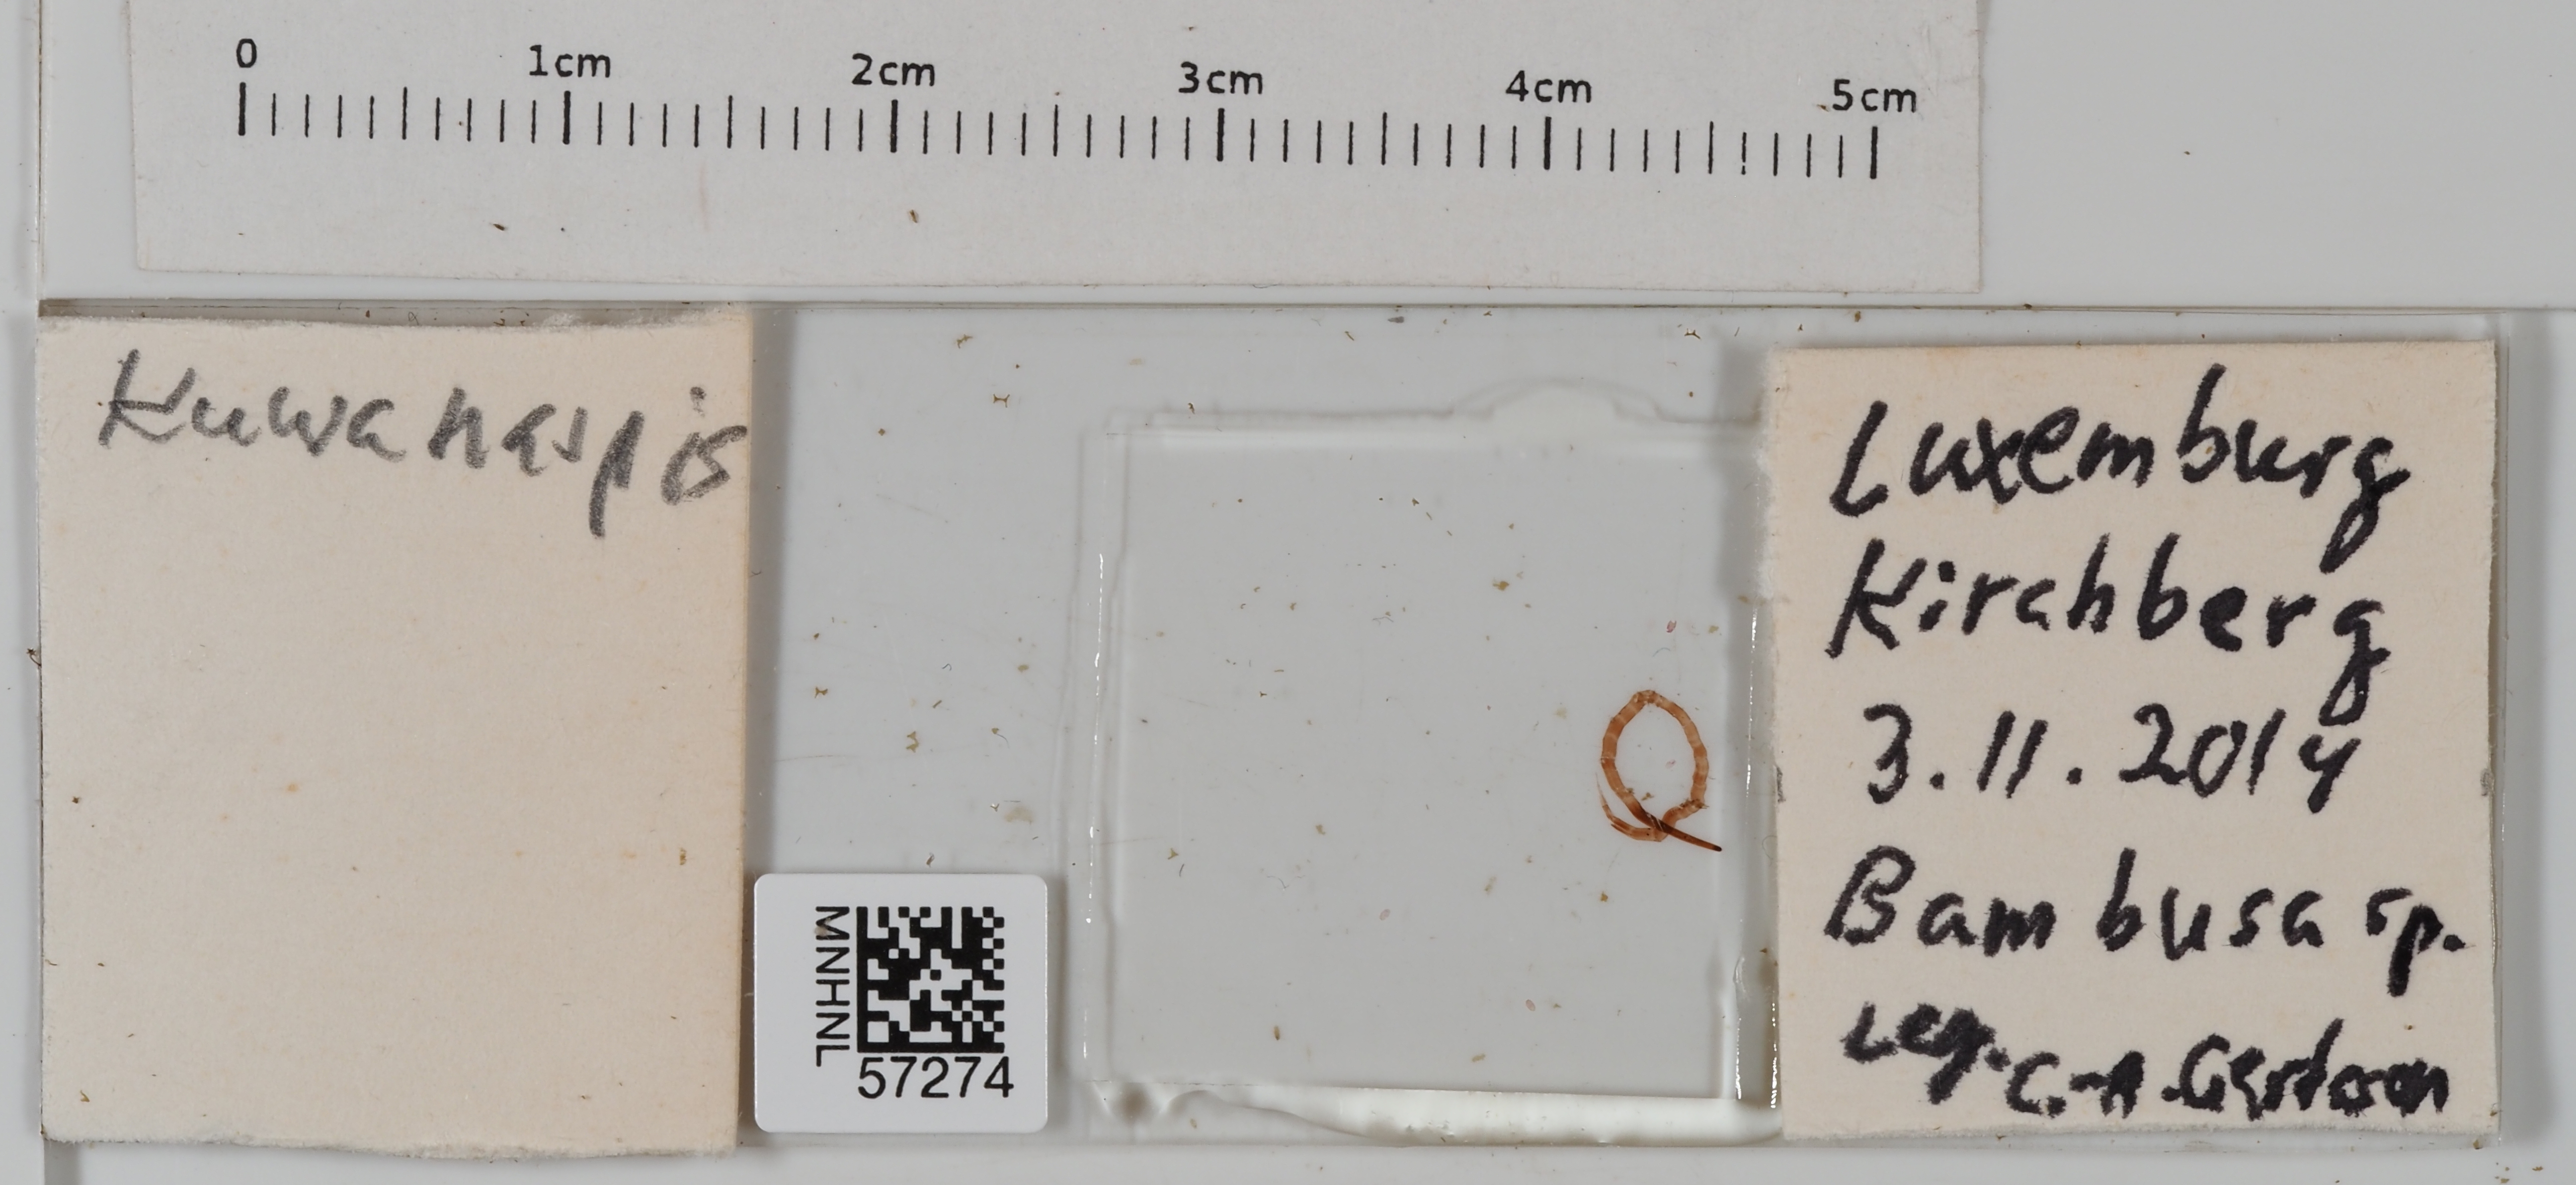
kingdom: Animalia
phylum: Arthropoda
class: Insecta
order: Hemiptera
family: Diaspididae
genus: Kuwanaspis
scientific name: Kuwanaspis
